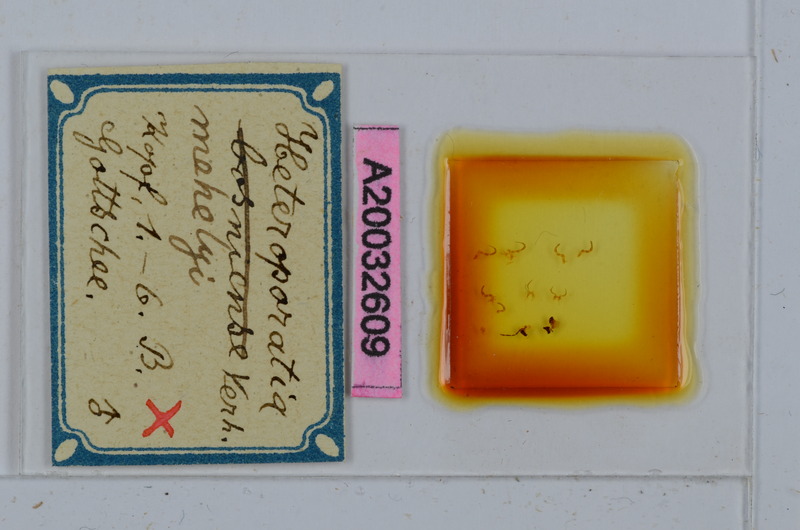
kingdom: Animalia
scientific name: Animalia
